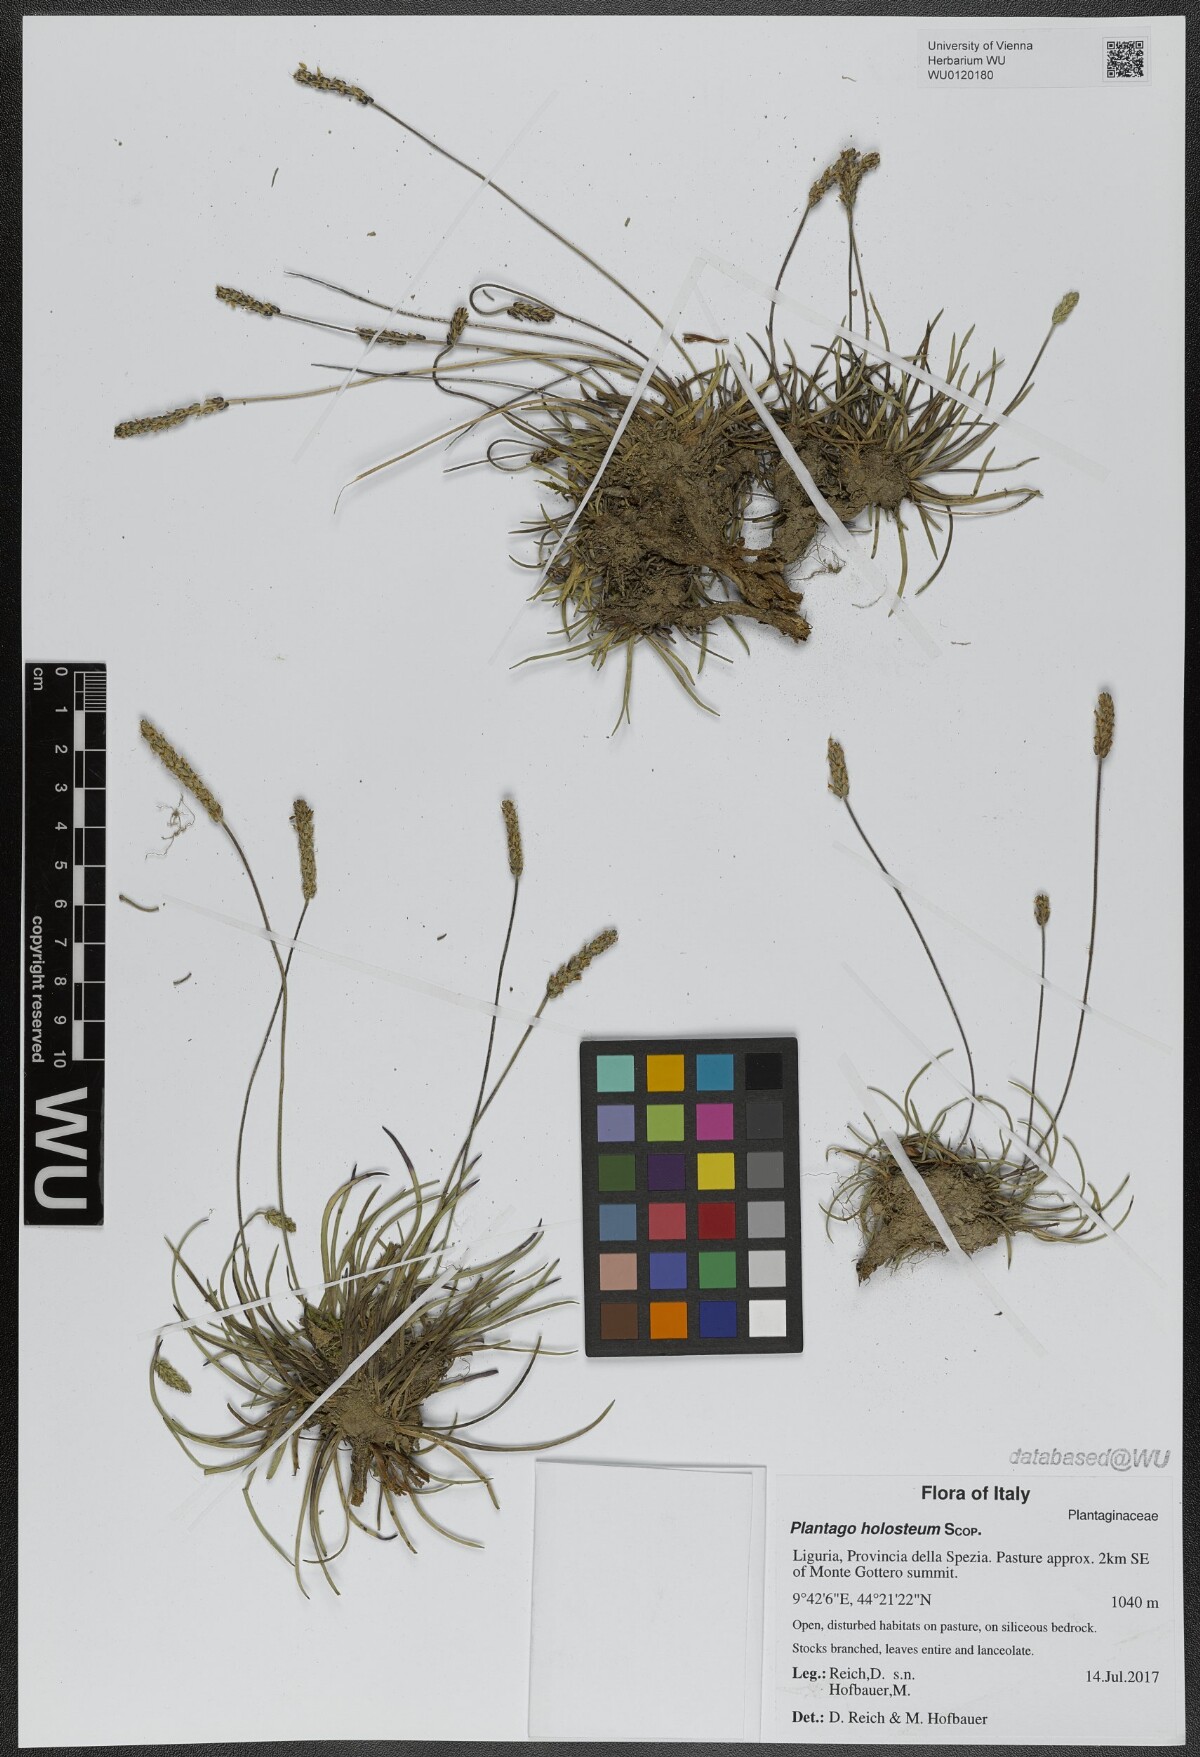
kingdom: Plantae
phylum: Tracheophyta
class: Magnoliopsida
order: Lamiales
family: Plantaginaceae
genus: Plantago
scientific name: Plantago subulata
